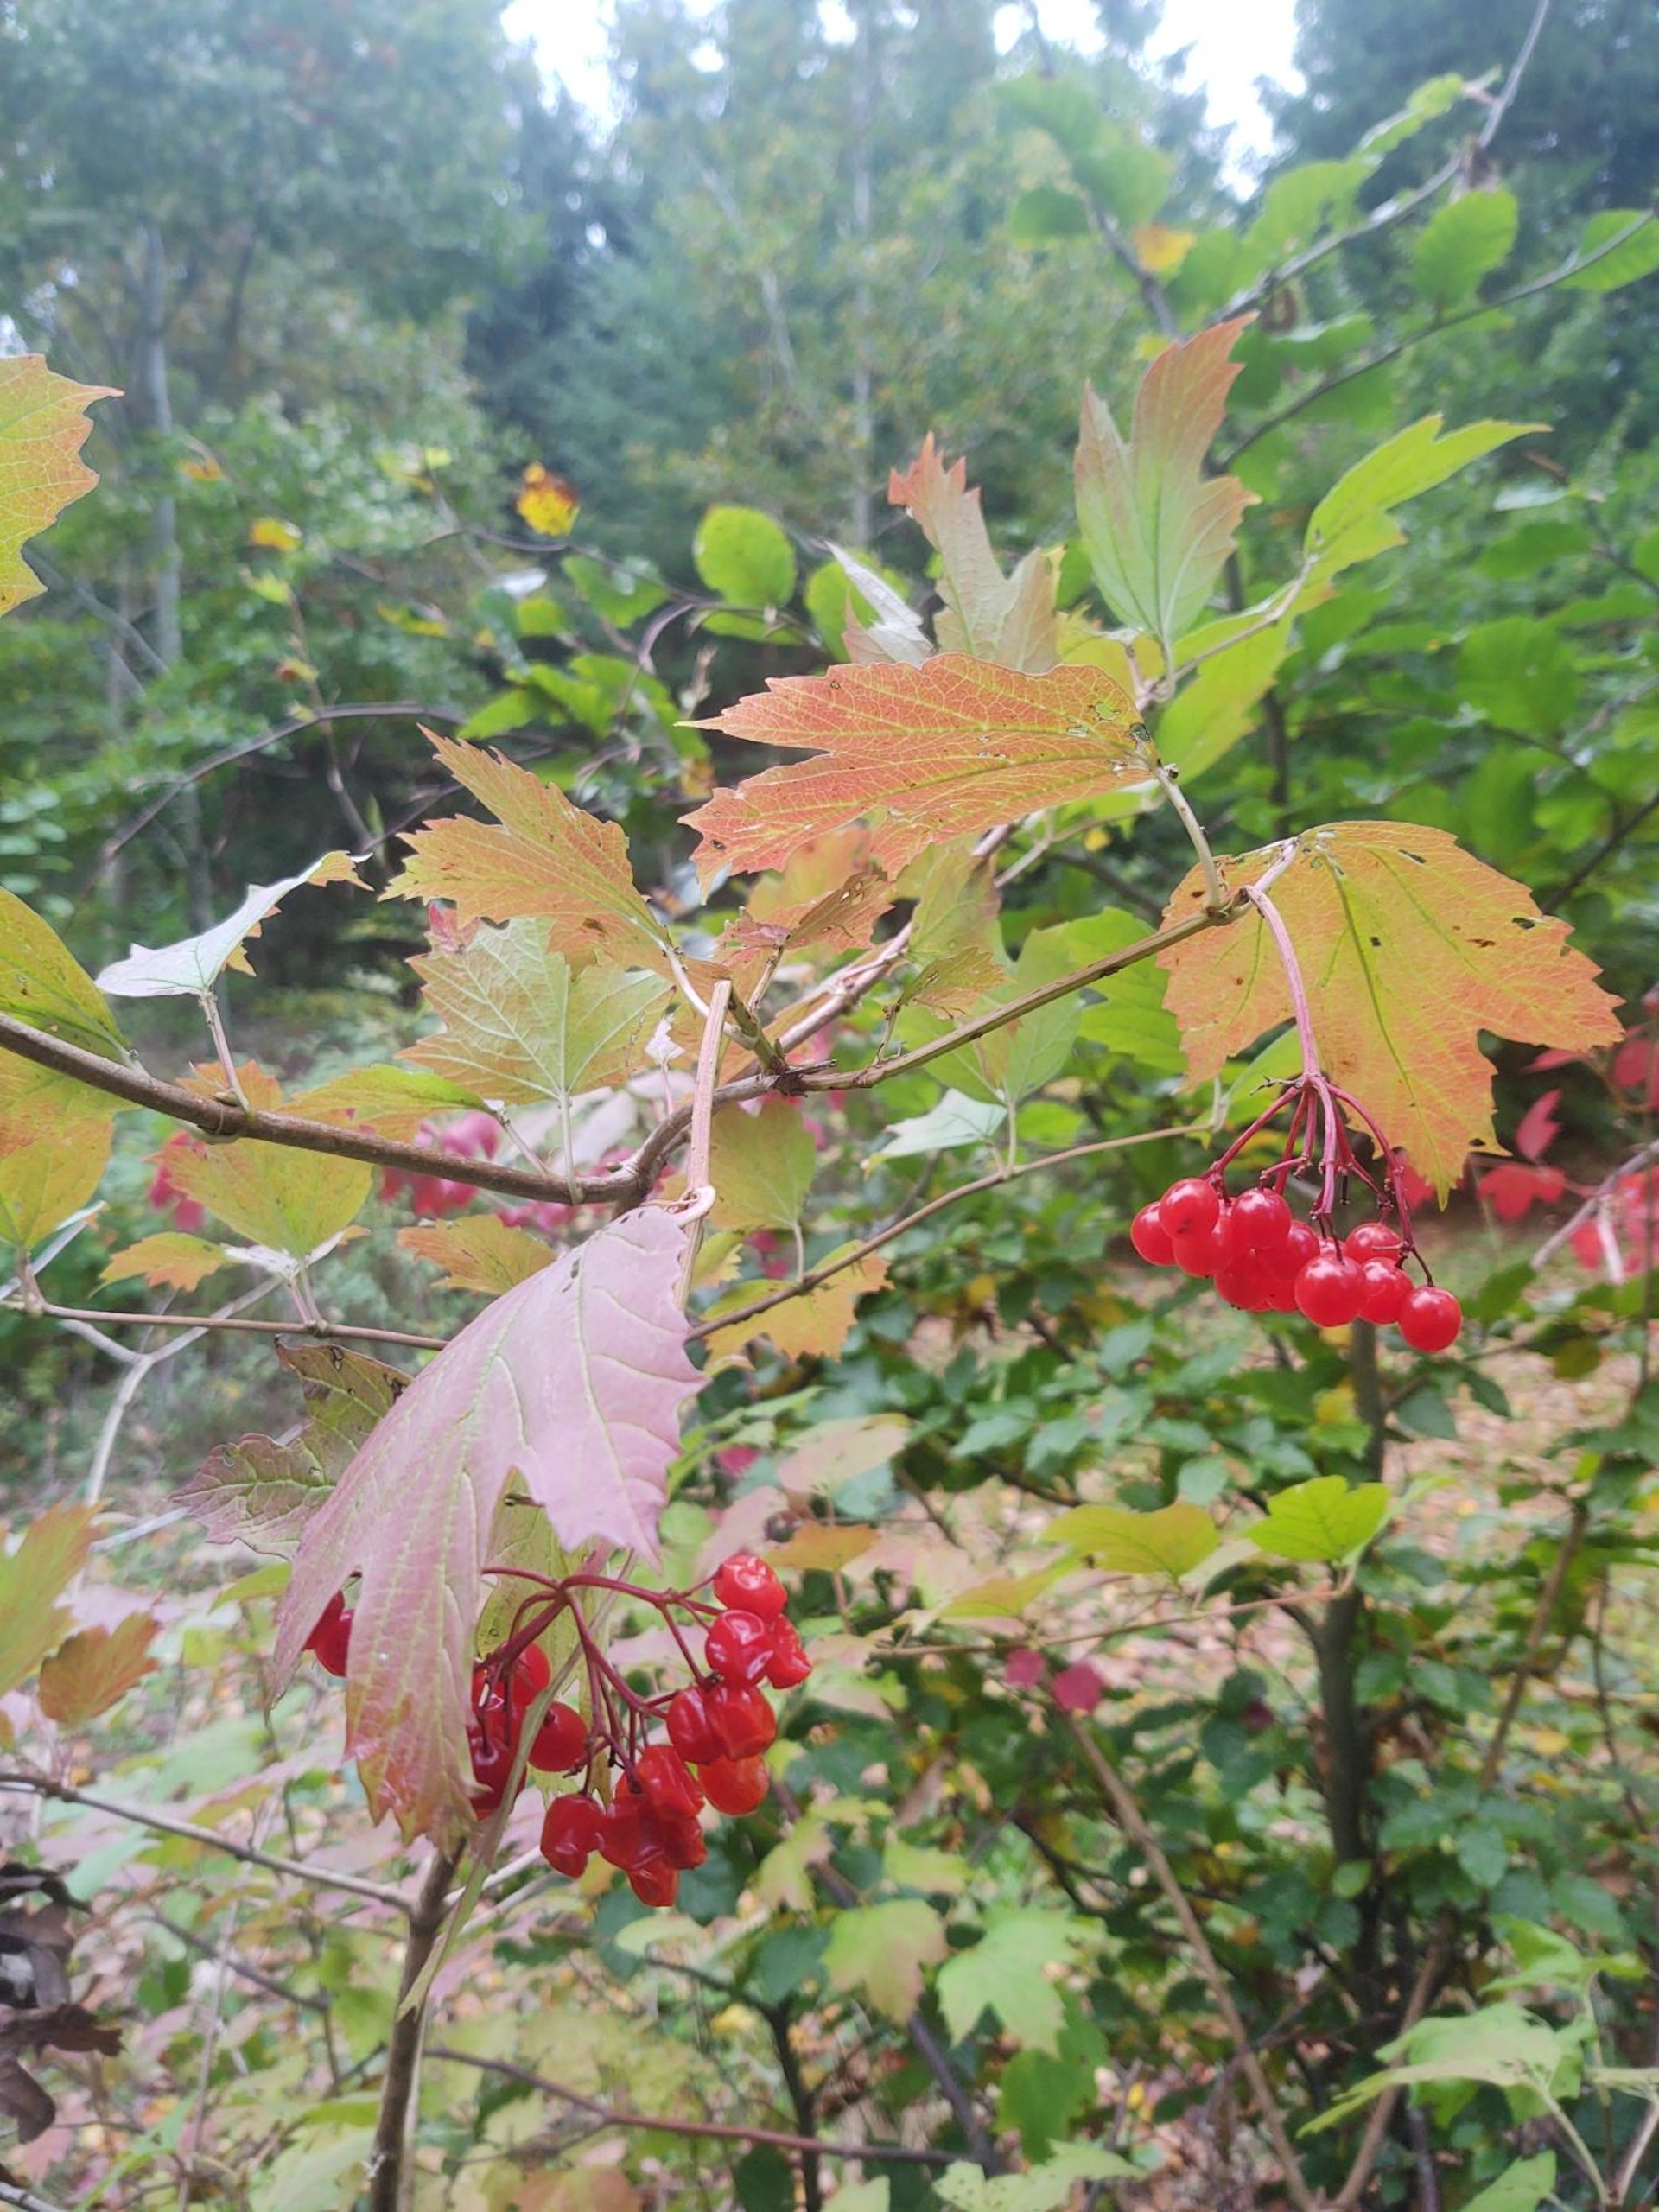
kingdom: Plantae
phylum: Tracheophyta
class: Magnoliopsida
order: Dipsacales
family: Viburnaceae
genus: Viburnum
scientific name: Viburnum opulus
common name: Kvalkved
